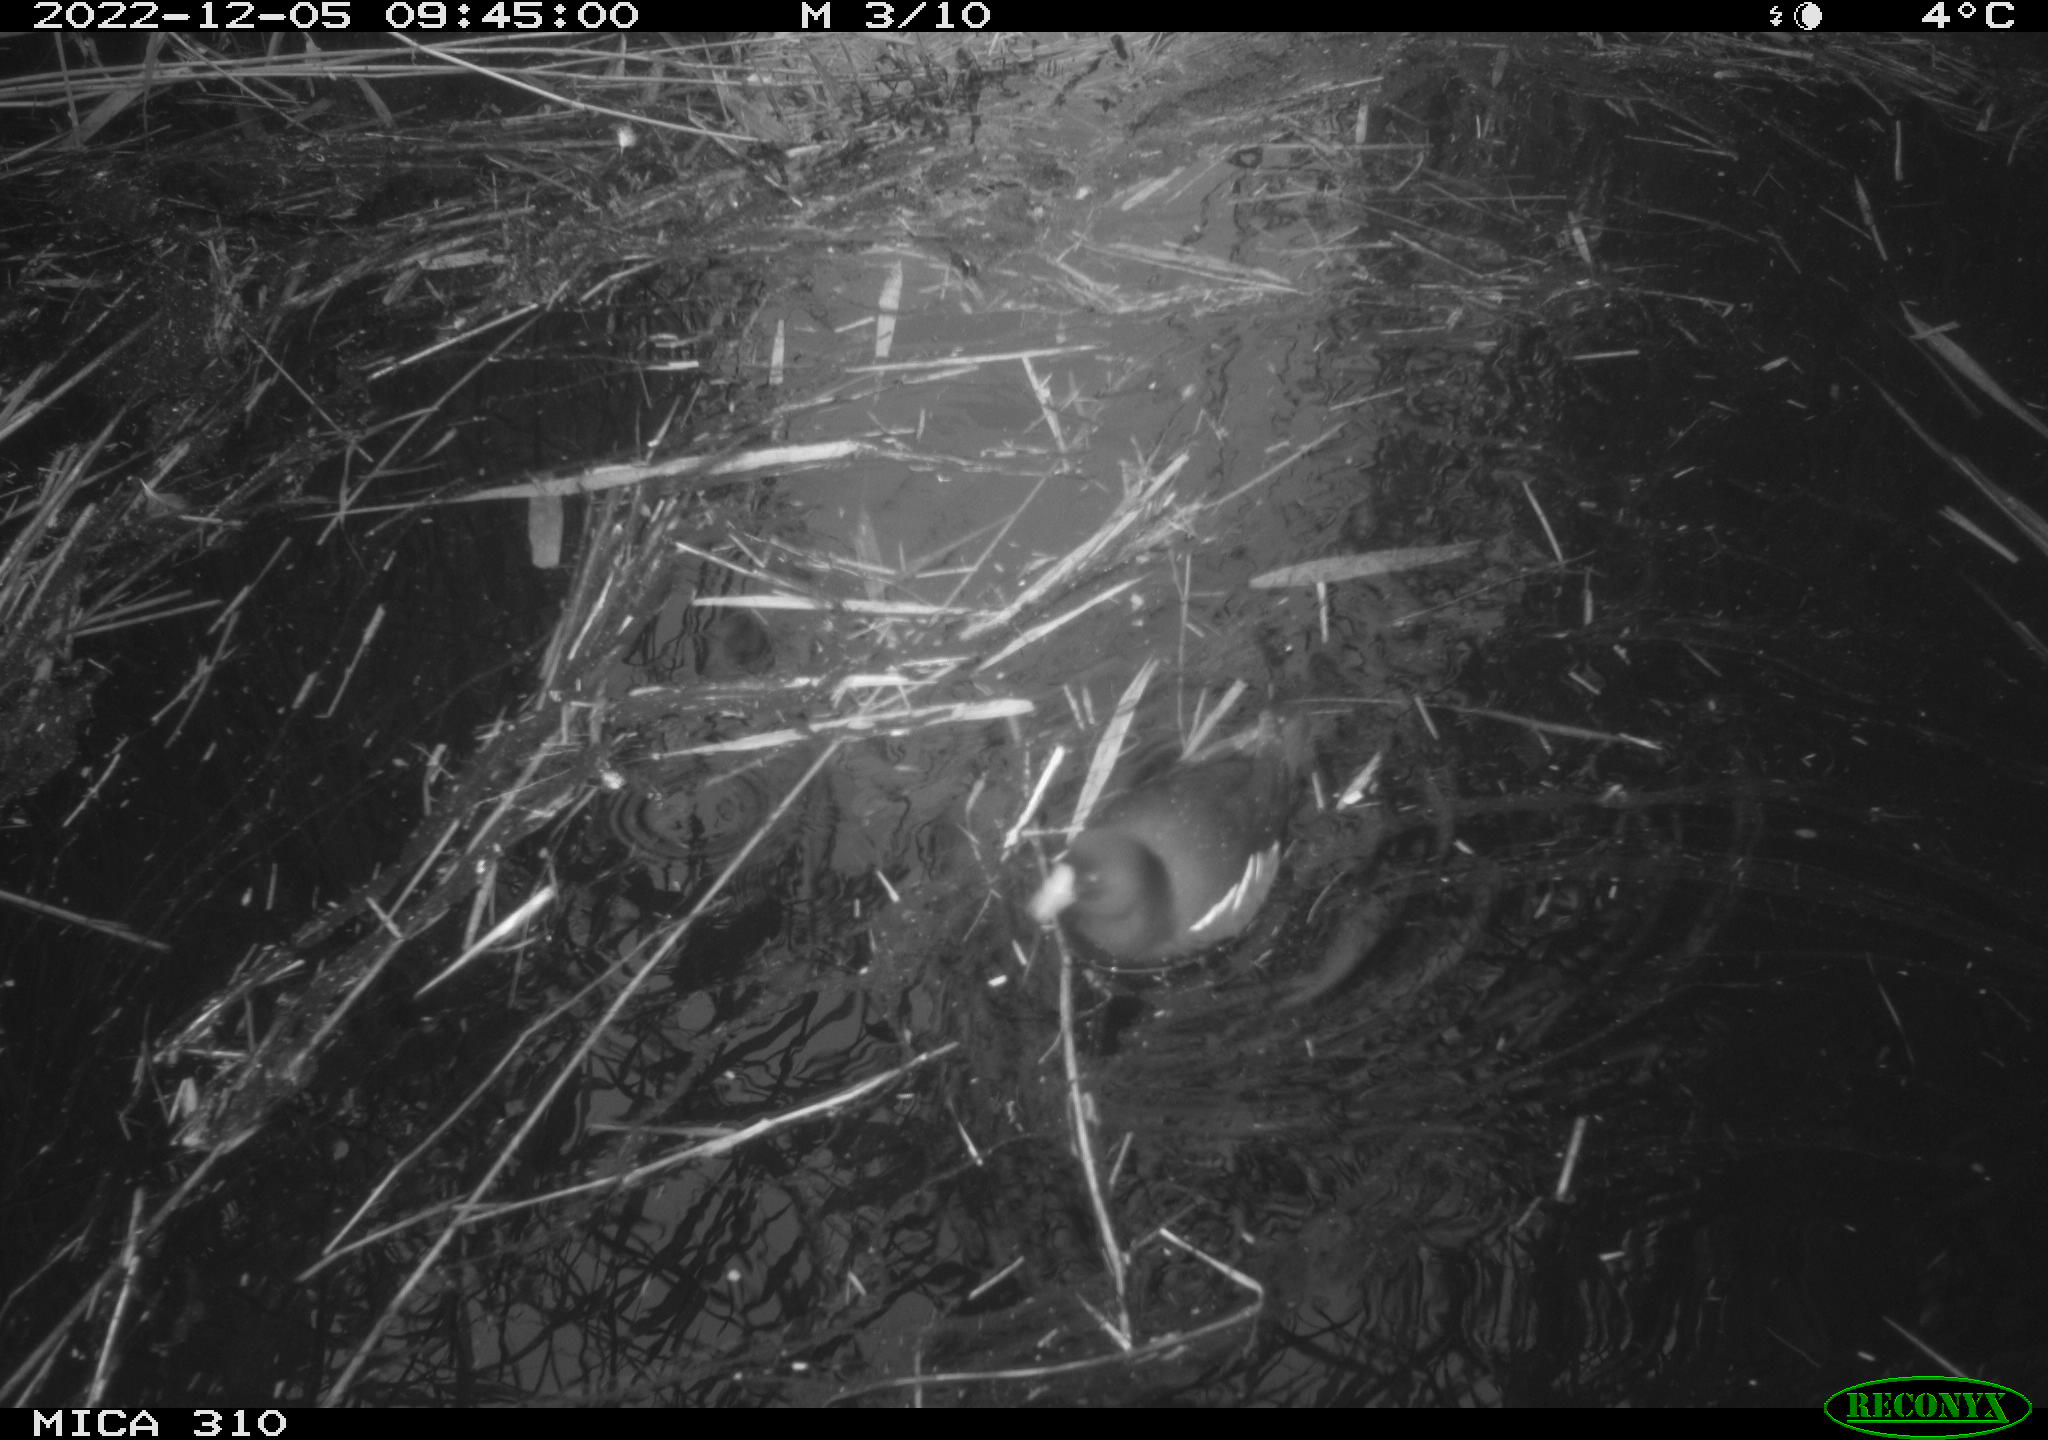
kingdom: Animalia
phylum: Chordata
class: Aves
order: Gruiformes
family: Rallidae
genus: Gallinula
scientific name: Gallinula chloropus
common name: Common moorhen
